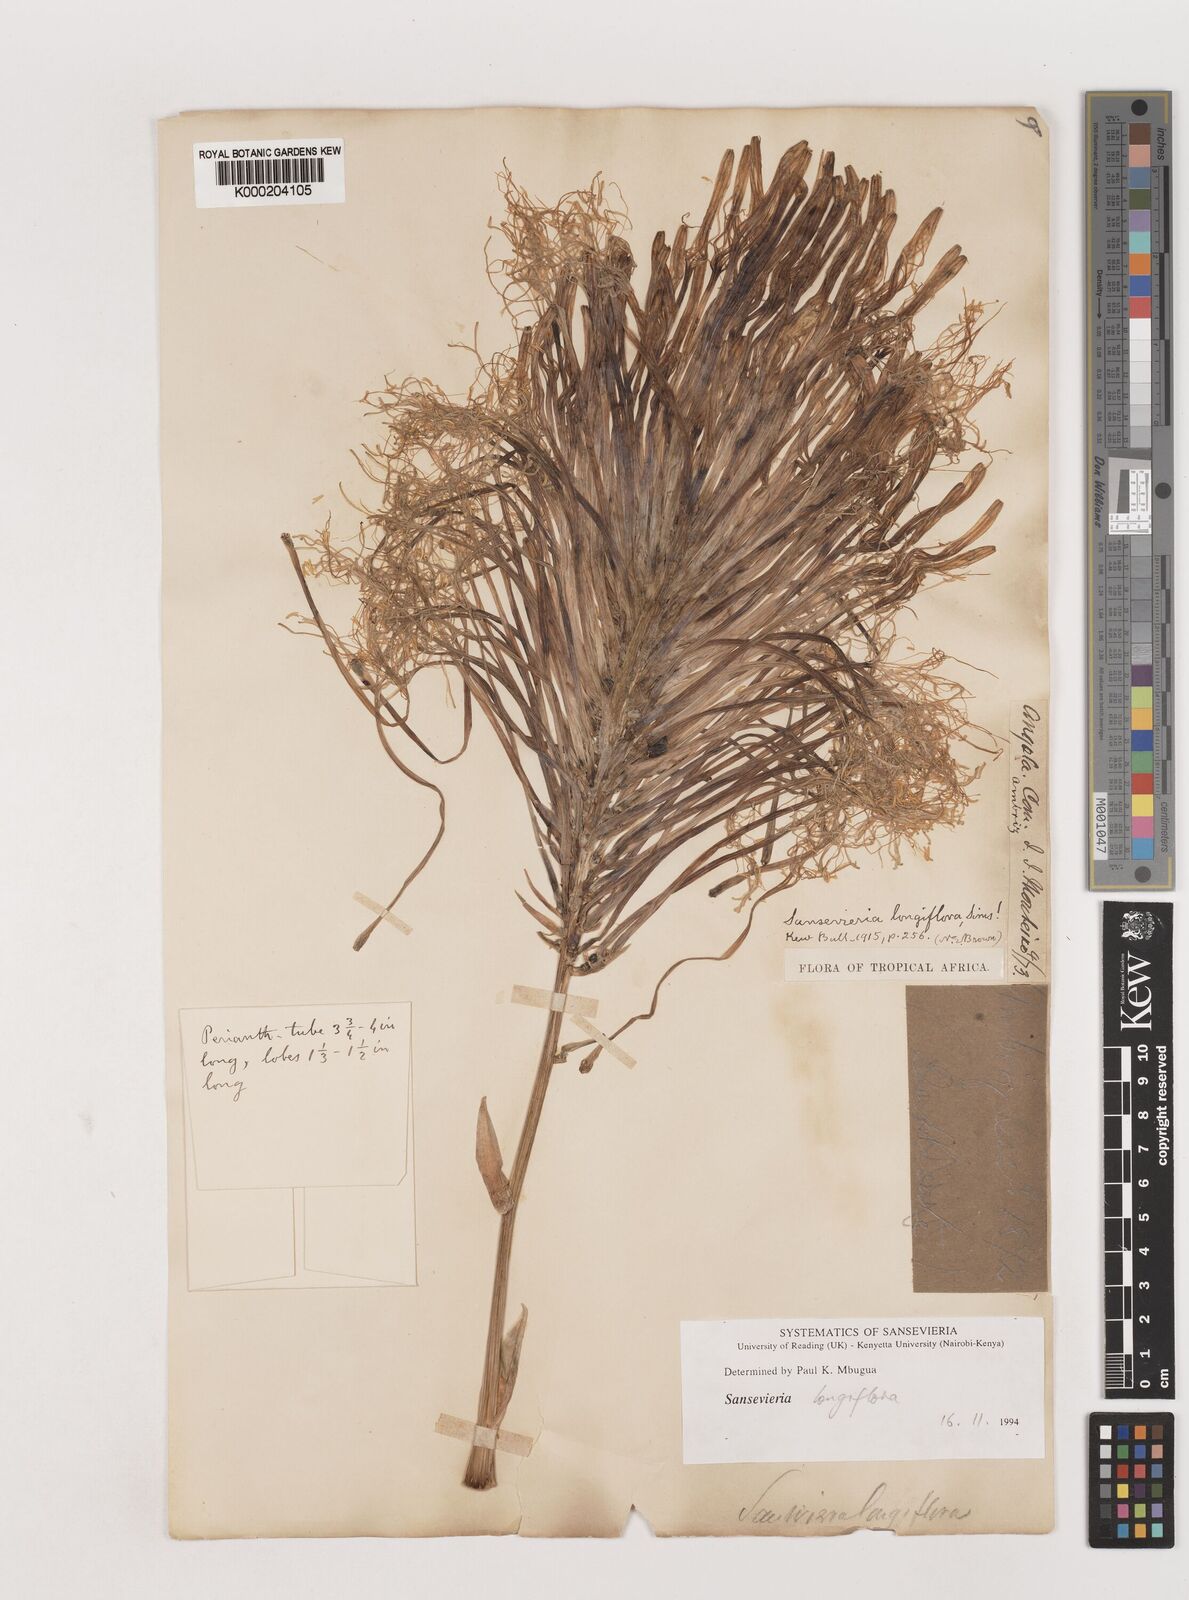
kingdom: Plantae
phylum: Tracheophyta
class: Liliopsida
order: Asparagales
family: Asparagaceae
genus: Dracaena
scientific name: Dracaena longiflora
